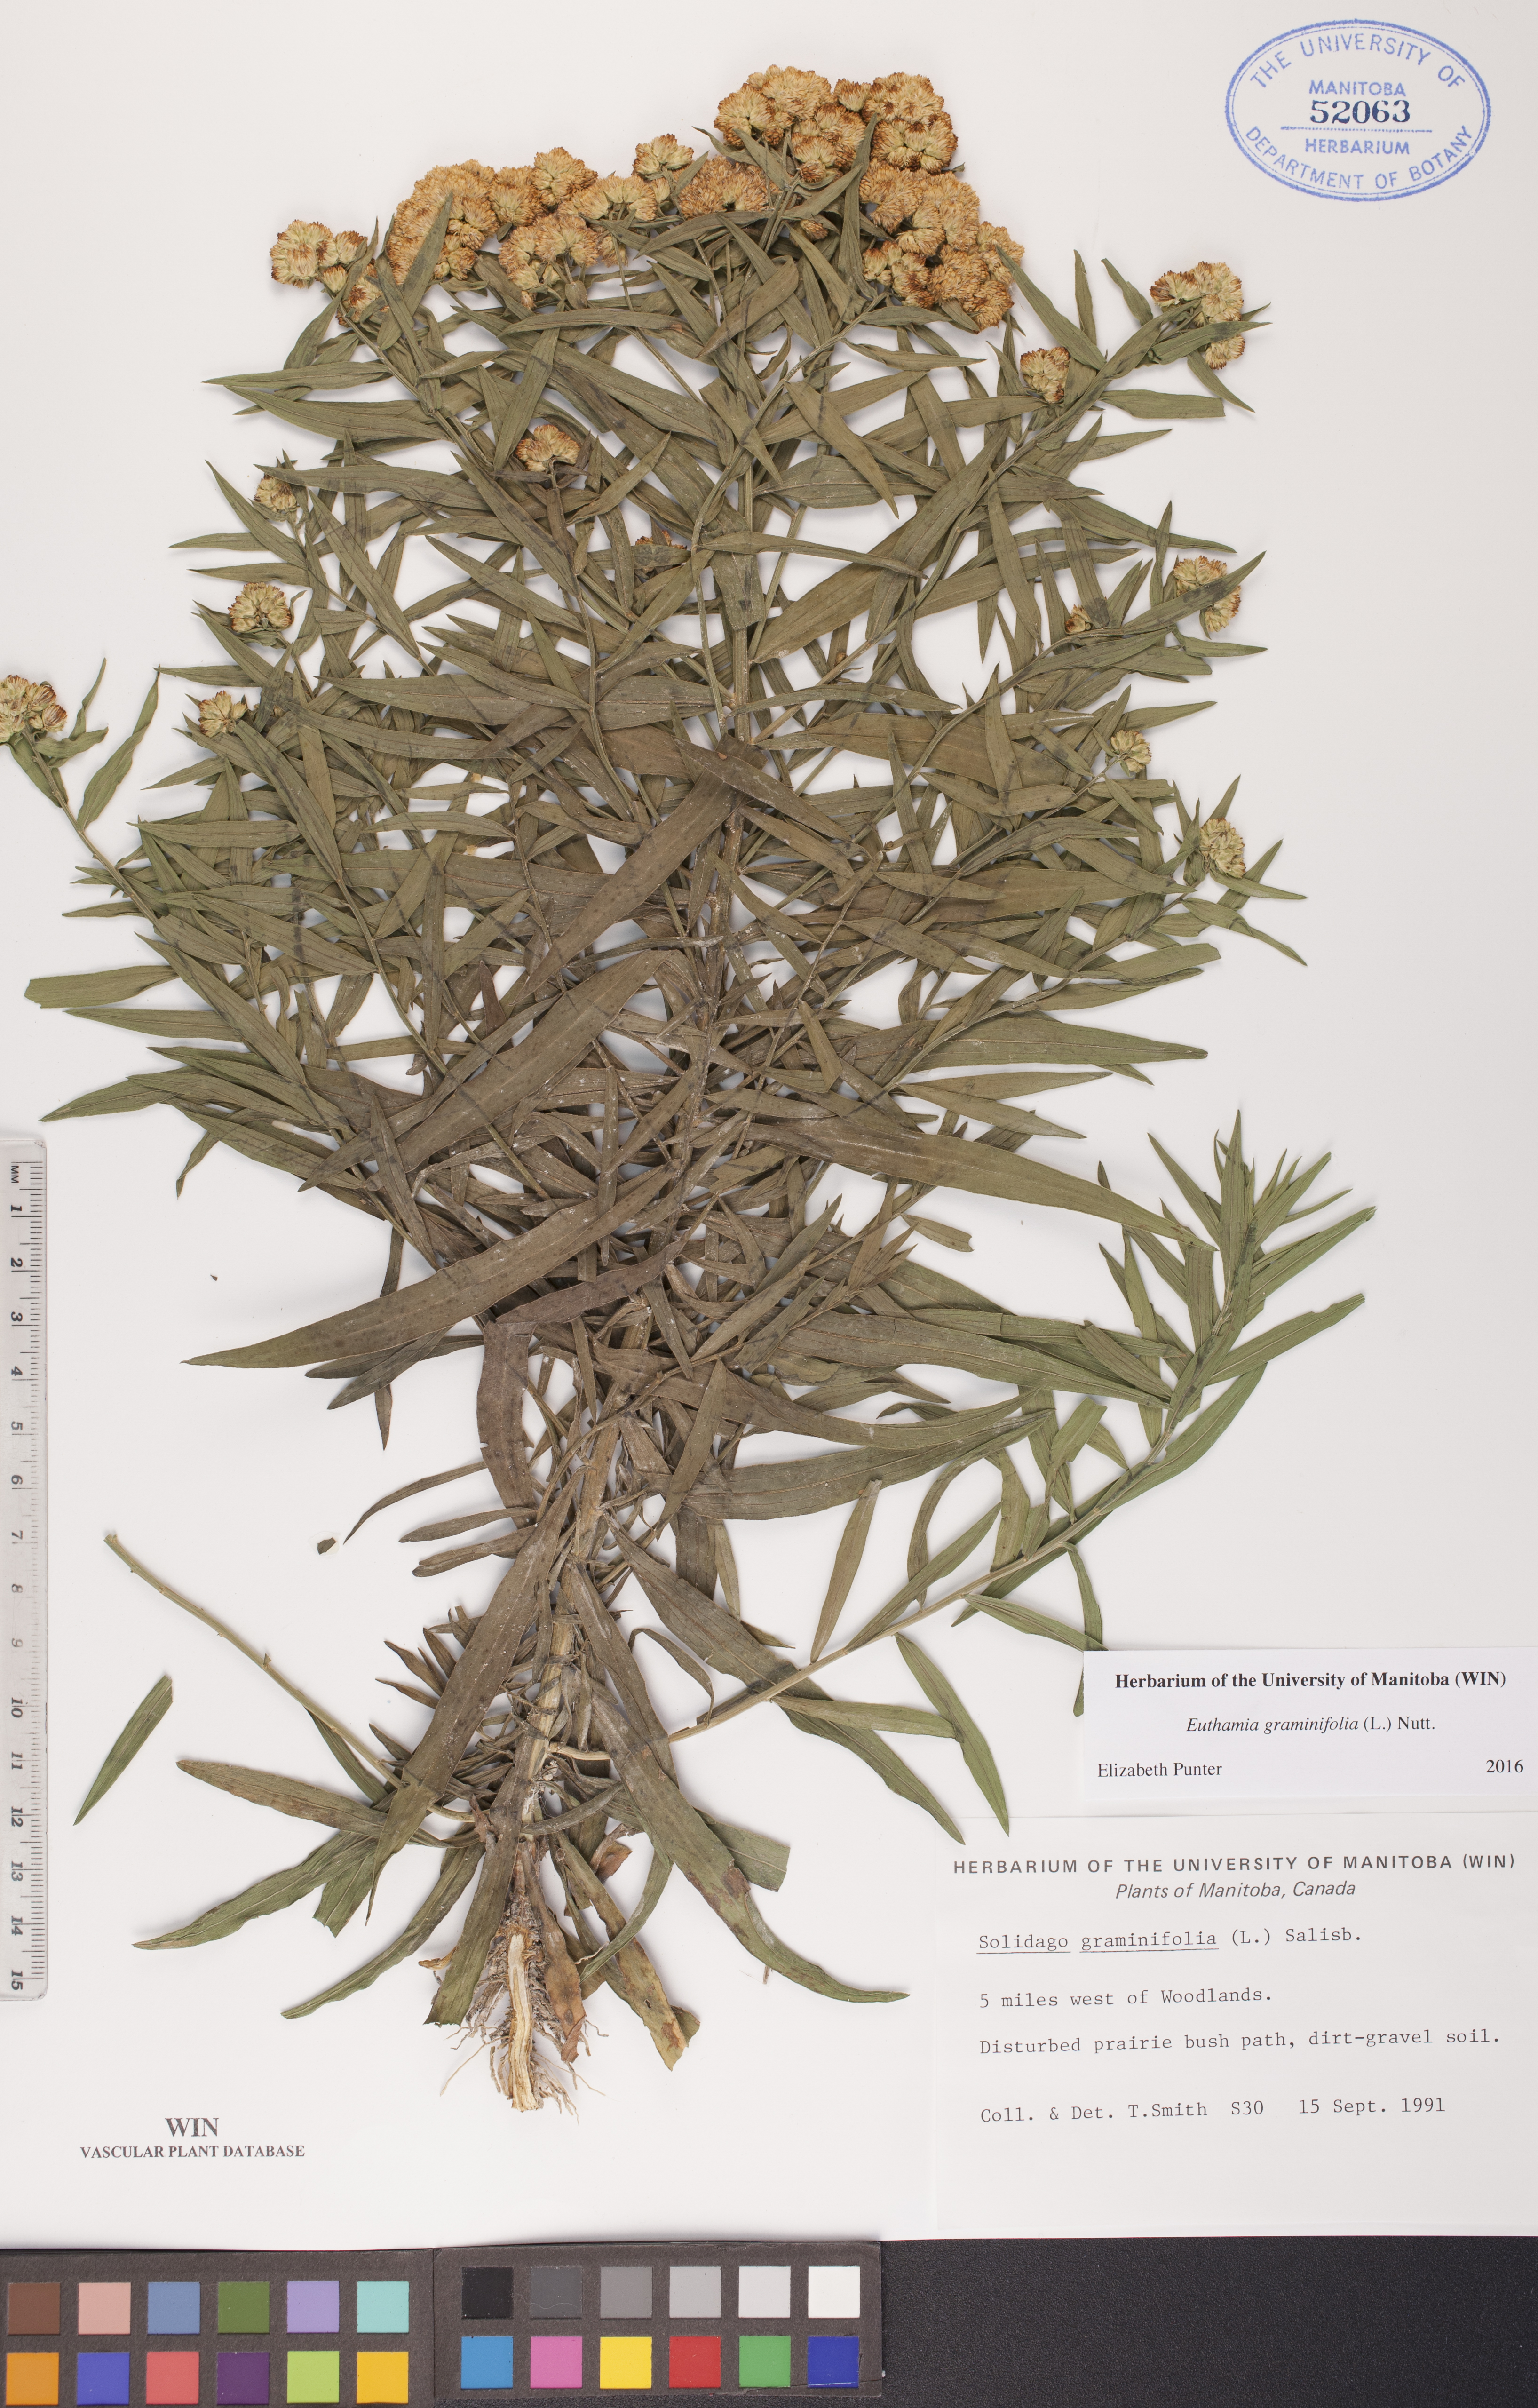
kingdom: Plantae
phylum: Tracheophyta
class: Magnoliopsida
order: Asterales
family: Asteraceae
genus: Euthamia
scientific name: Euthamia graminifolia
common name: Common goldentop
